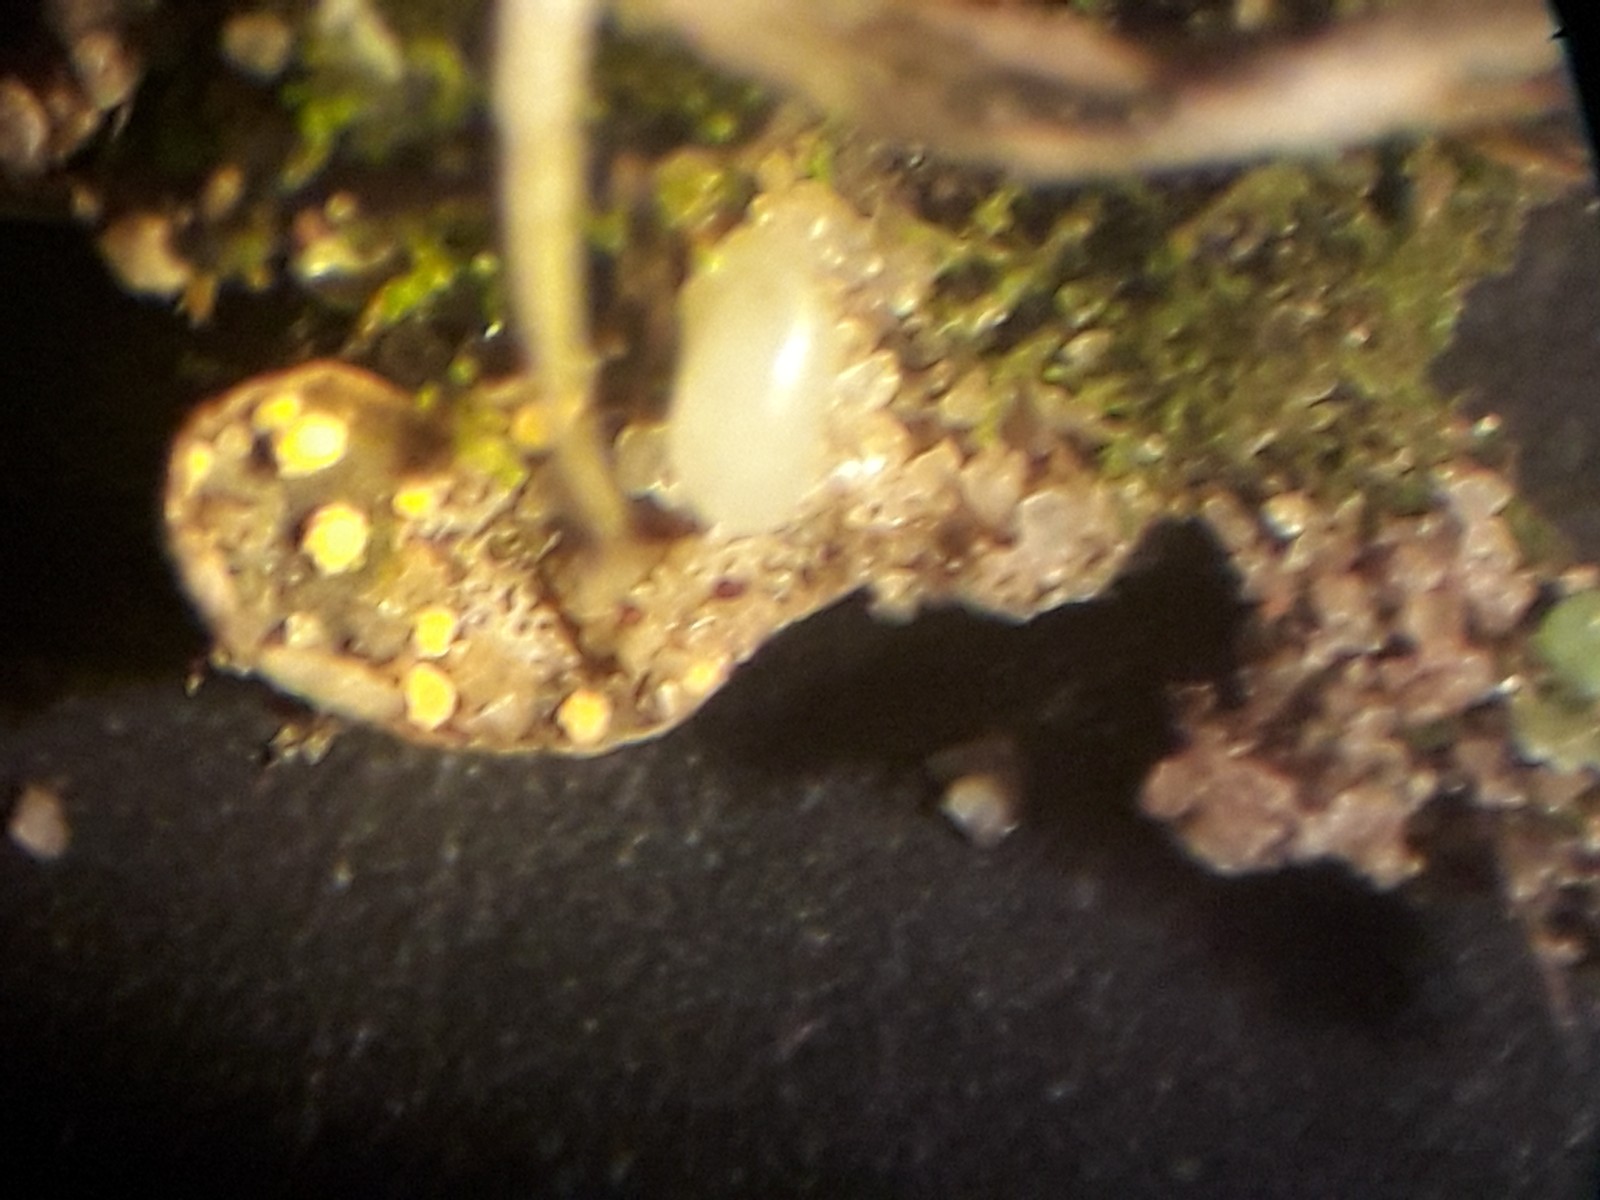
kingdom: Fungi
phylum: Ascomycota
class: Sordariomycetes
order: Hypocreales
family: Bionectriaceae
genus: Pronectria
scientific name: Pronectria robergei
